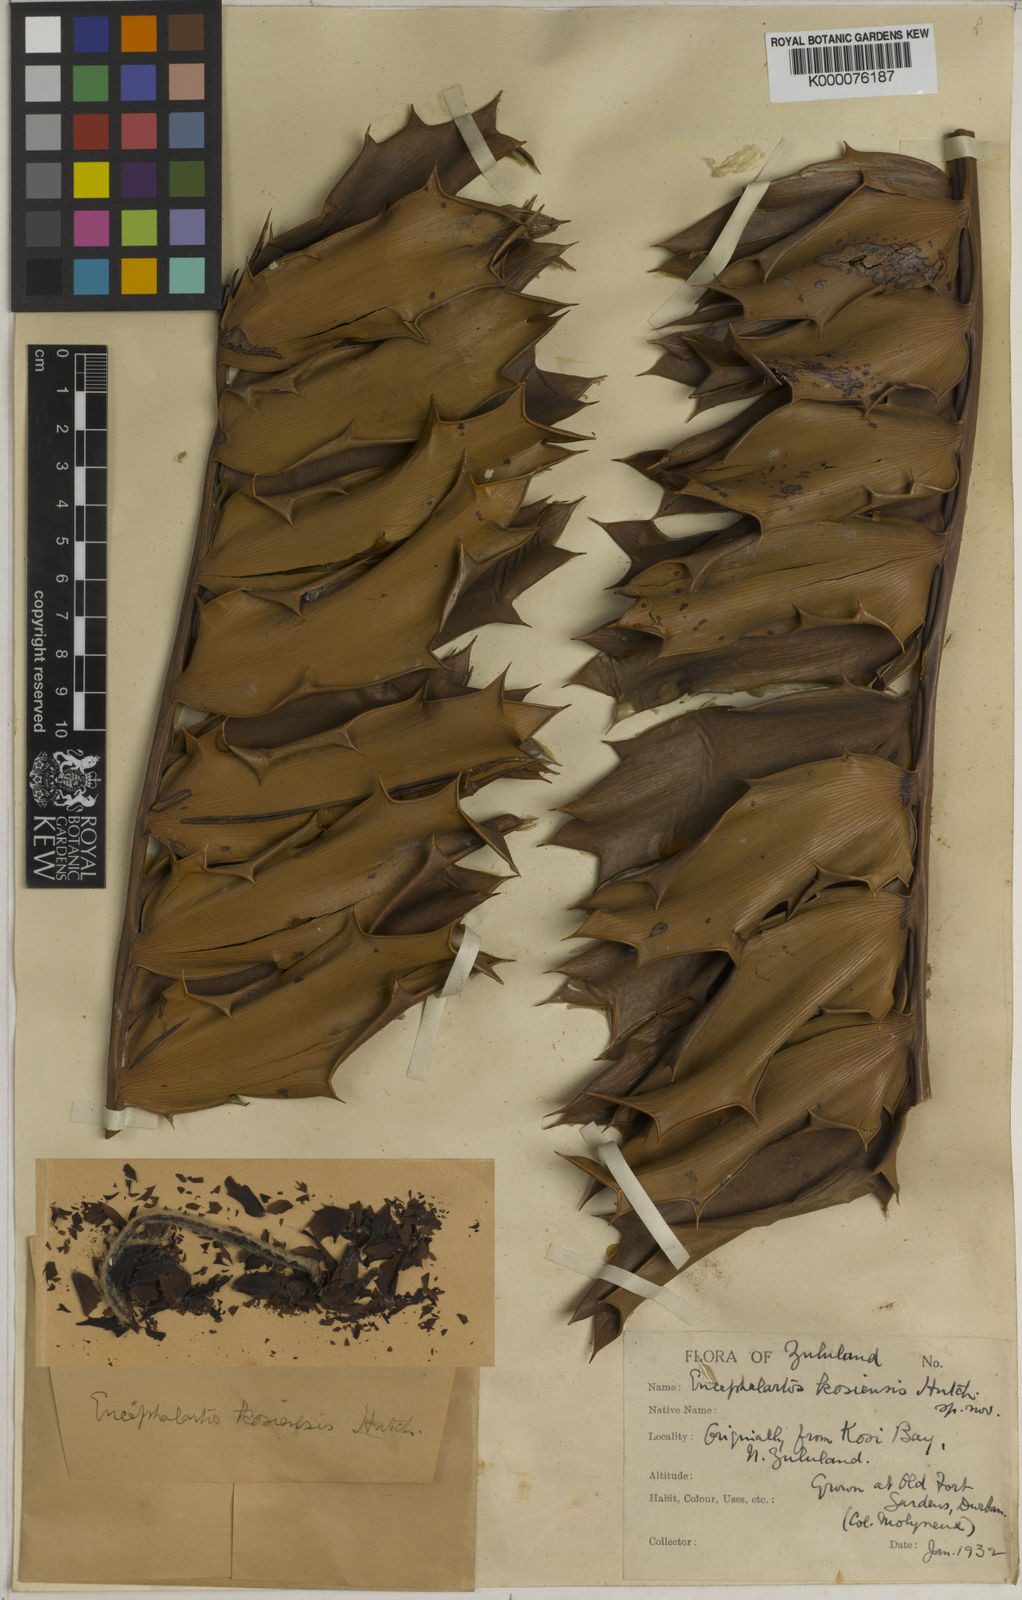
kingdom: Plantae
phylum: Tracheophyta
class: Cycadopsida
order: Cycadales
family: Zamiaceae
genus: Encephalartos
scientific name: Encephalartos ferox
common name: Kozi cycad
